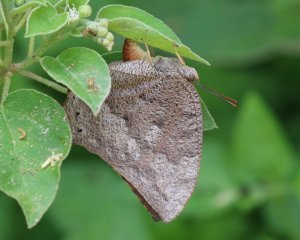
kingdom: Animalia
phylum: Arthropoda
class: Insecta
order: Lepidoptera
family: Nymphalidae
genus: Anaea
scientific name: Anaea aidea
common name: Tropical Leafwing
